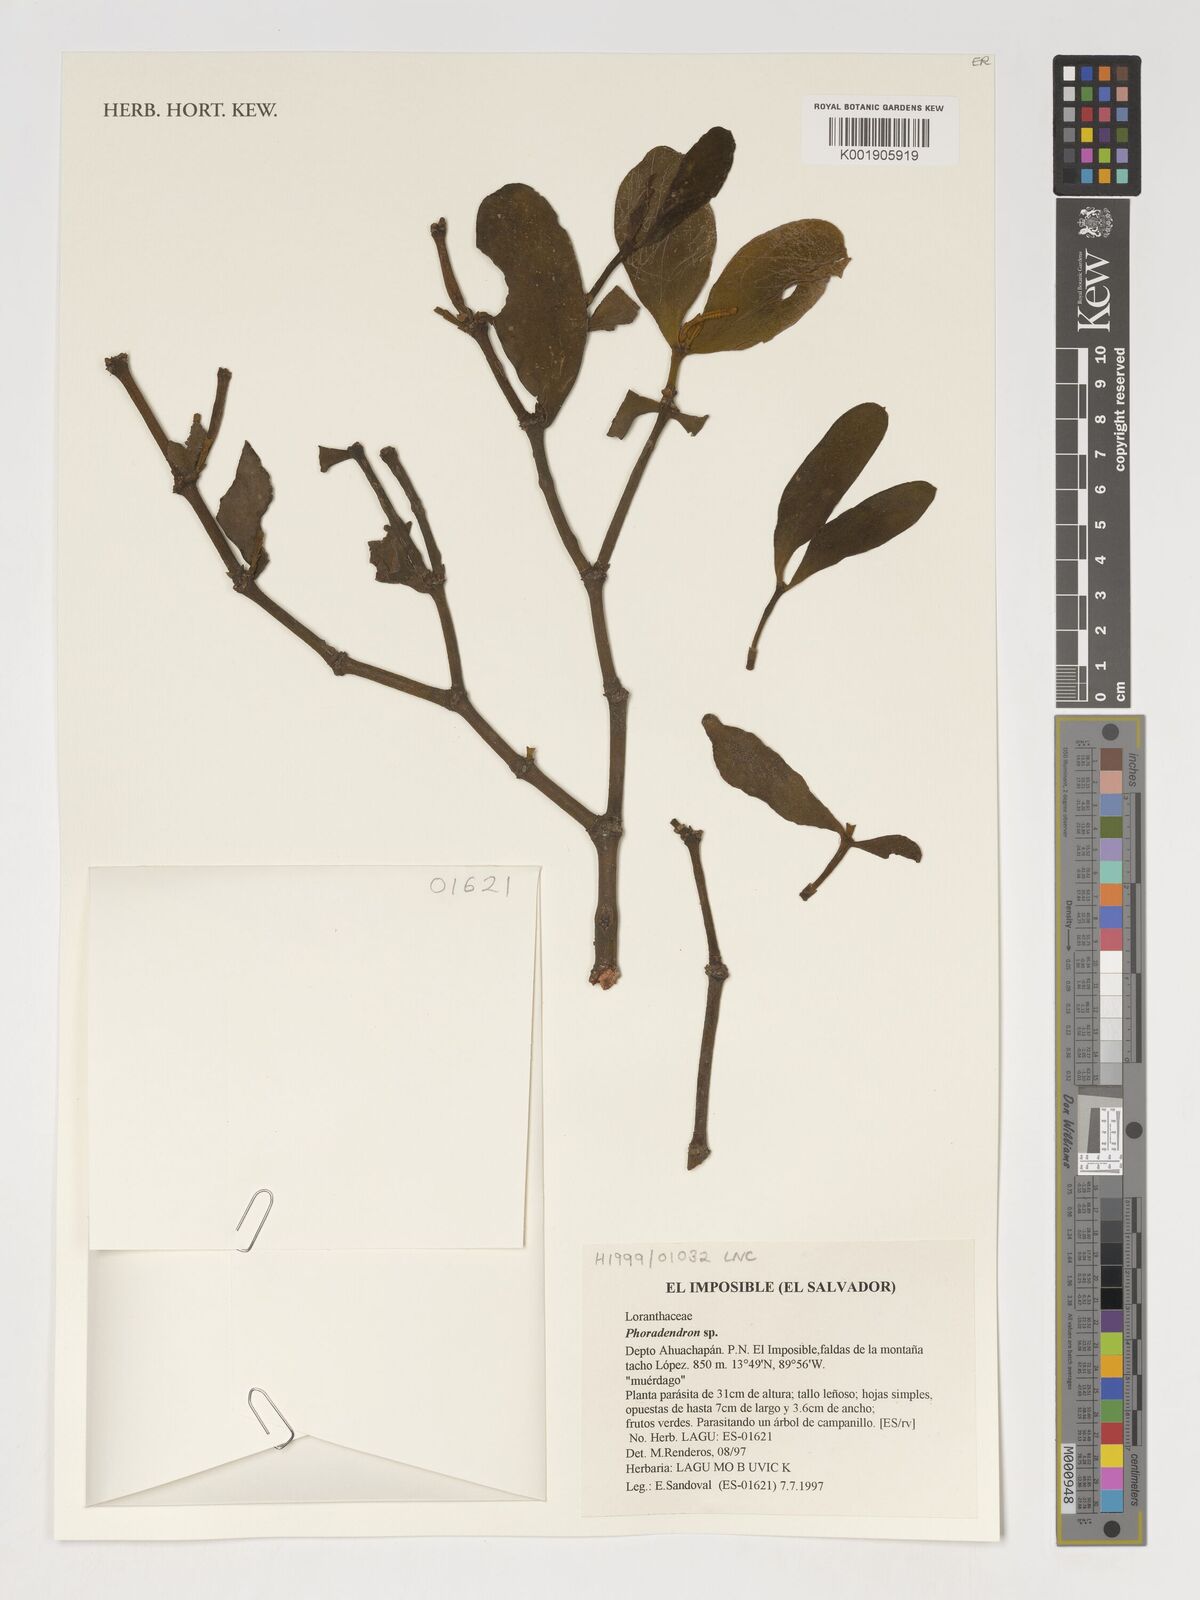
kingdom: Plantae
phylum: Tracheophyta
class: Magnoliopsida
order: Santalales
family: Viscaceae
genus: Phoradendron
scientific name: Phoradendron
